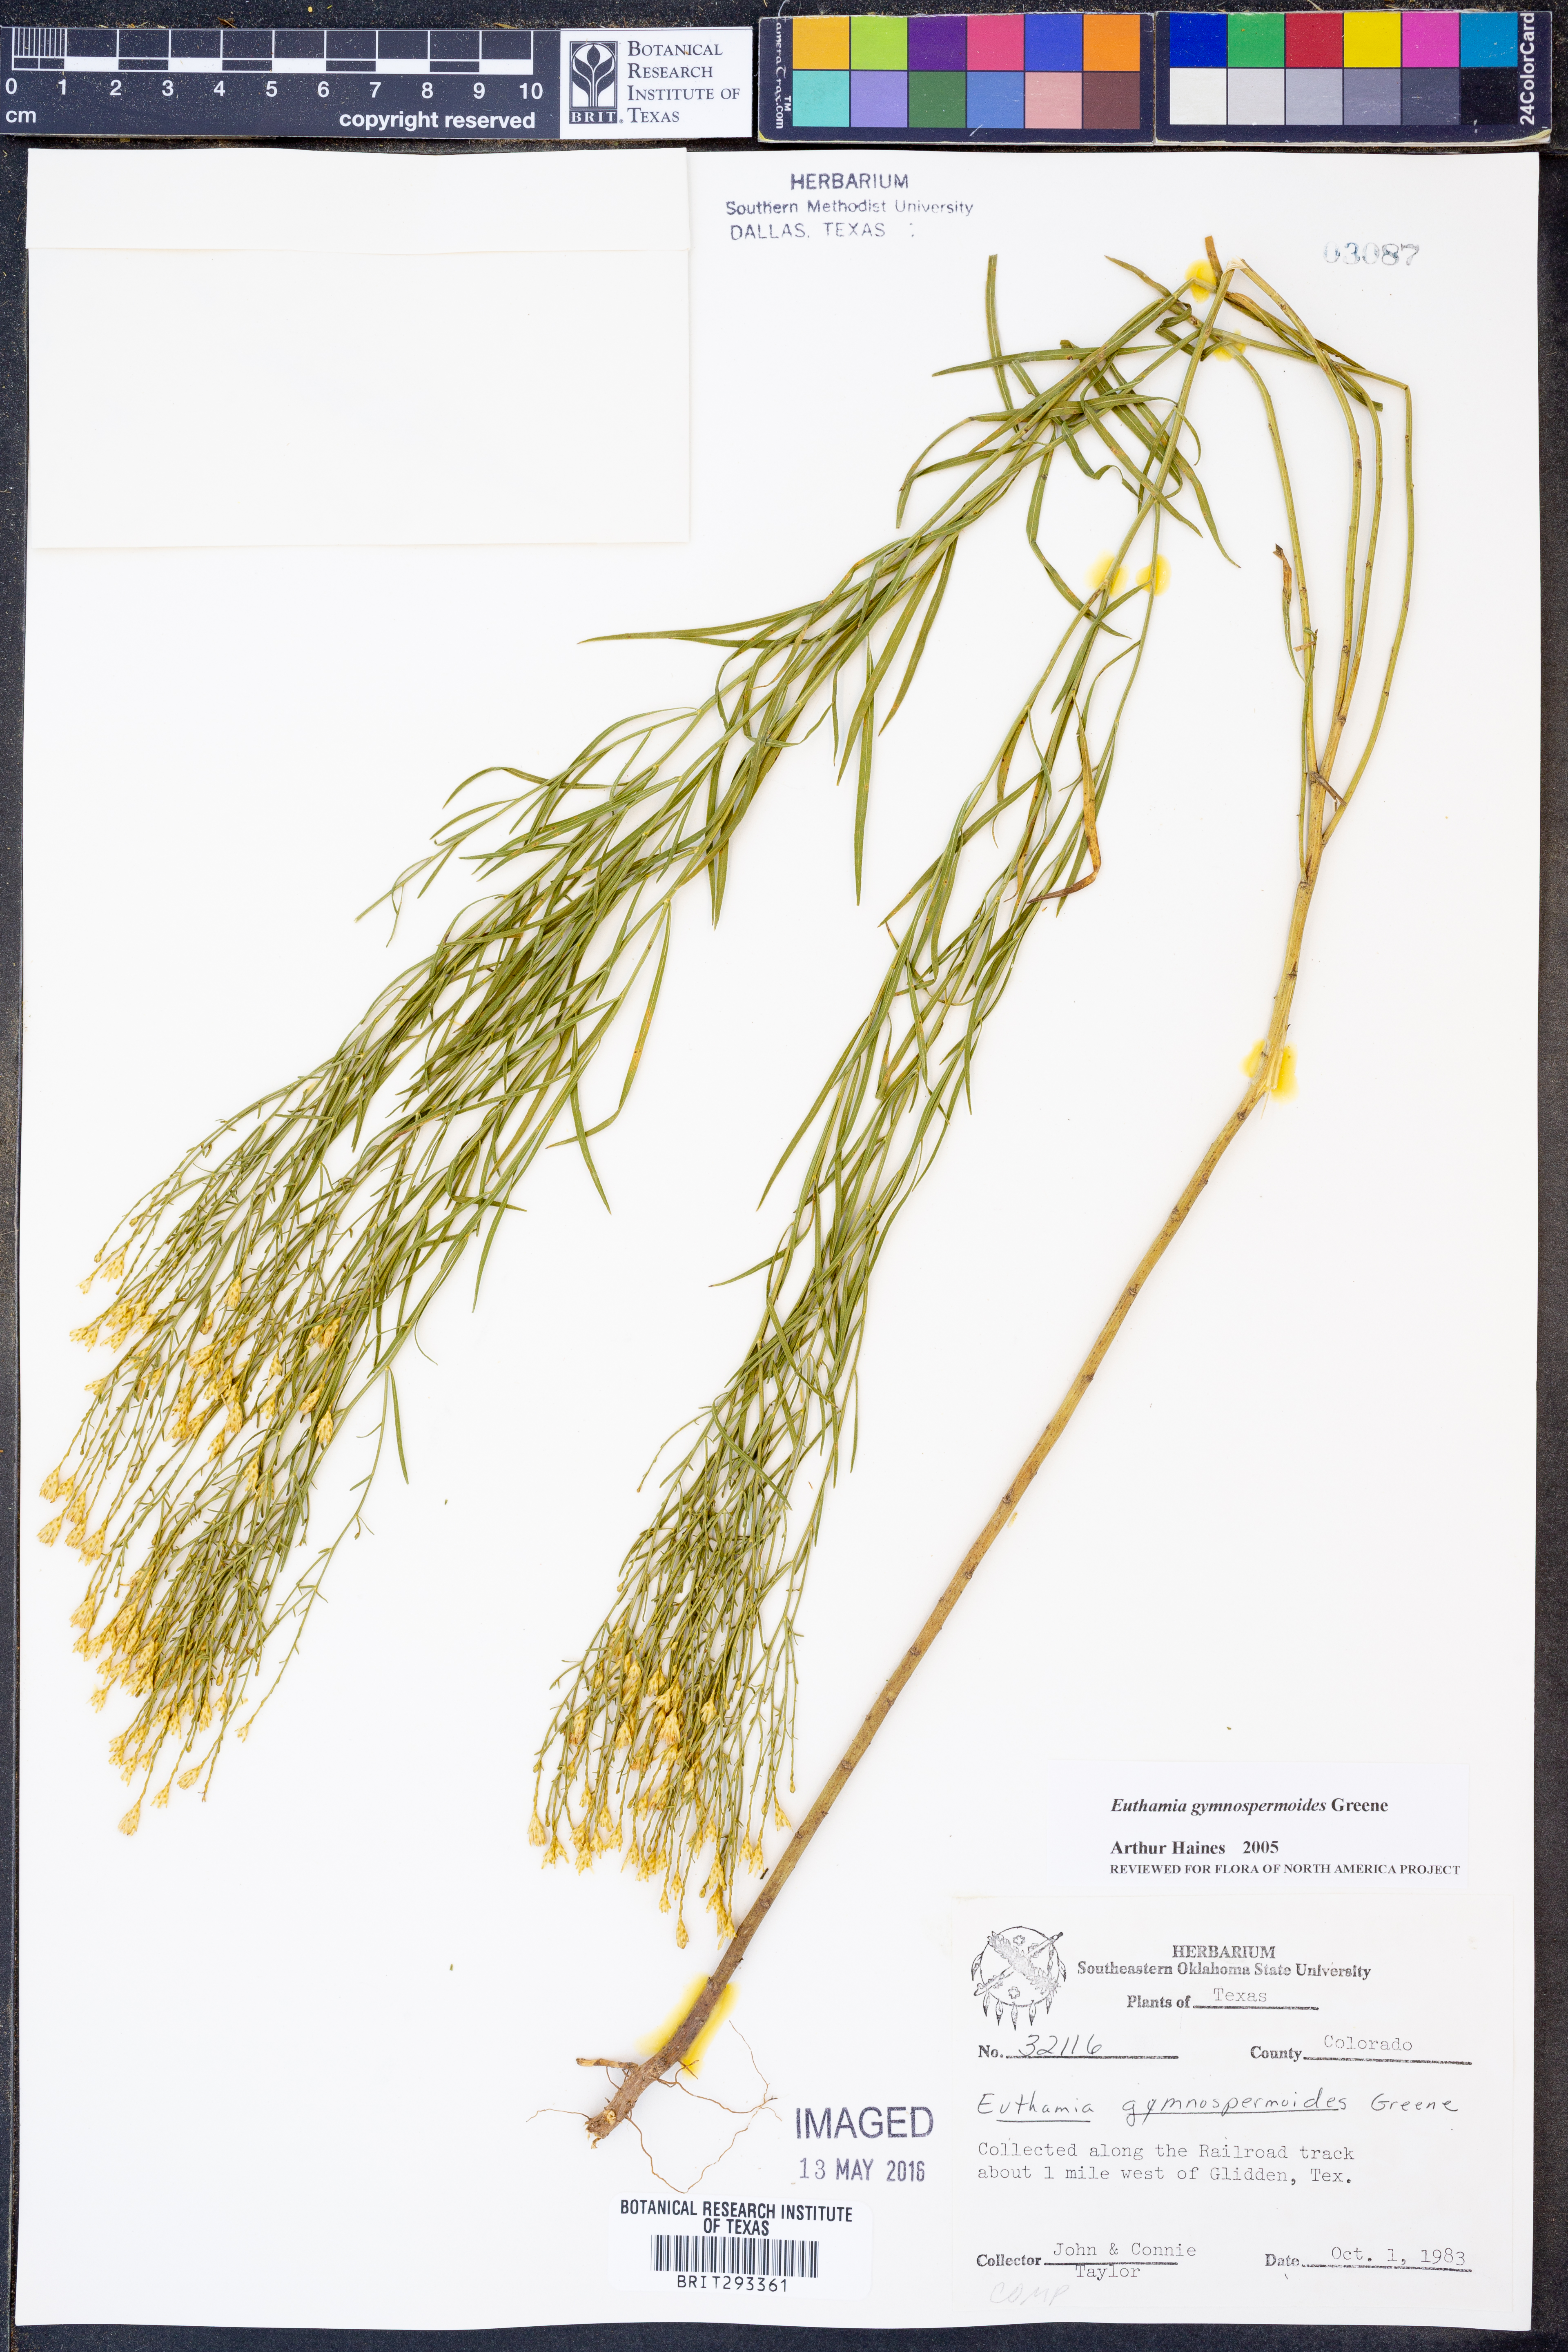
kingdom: Plantae
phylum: Tracheophyta
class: Magnoliopsida
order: Asterales
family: Asteraceae
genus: Euthamia
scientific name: Euthamia gymnospermoides
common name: Great plains goldentop
